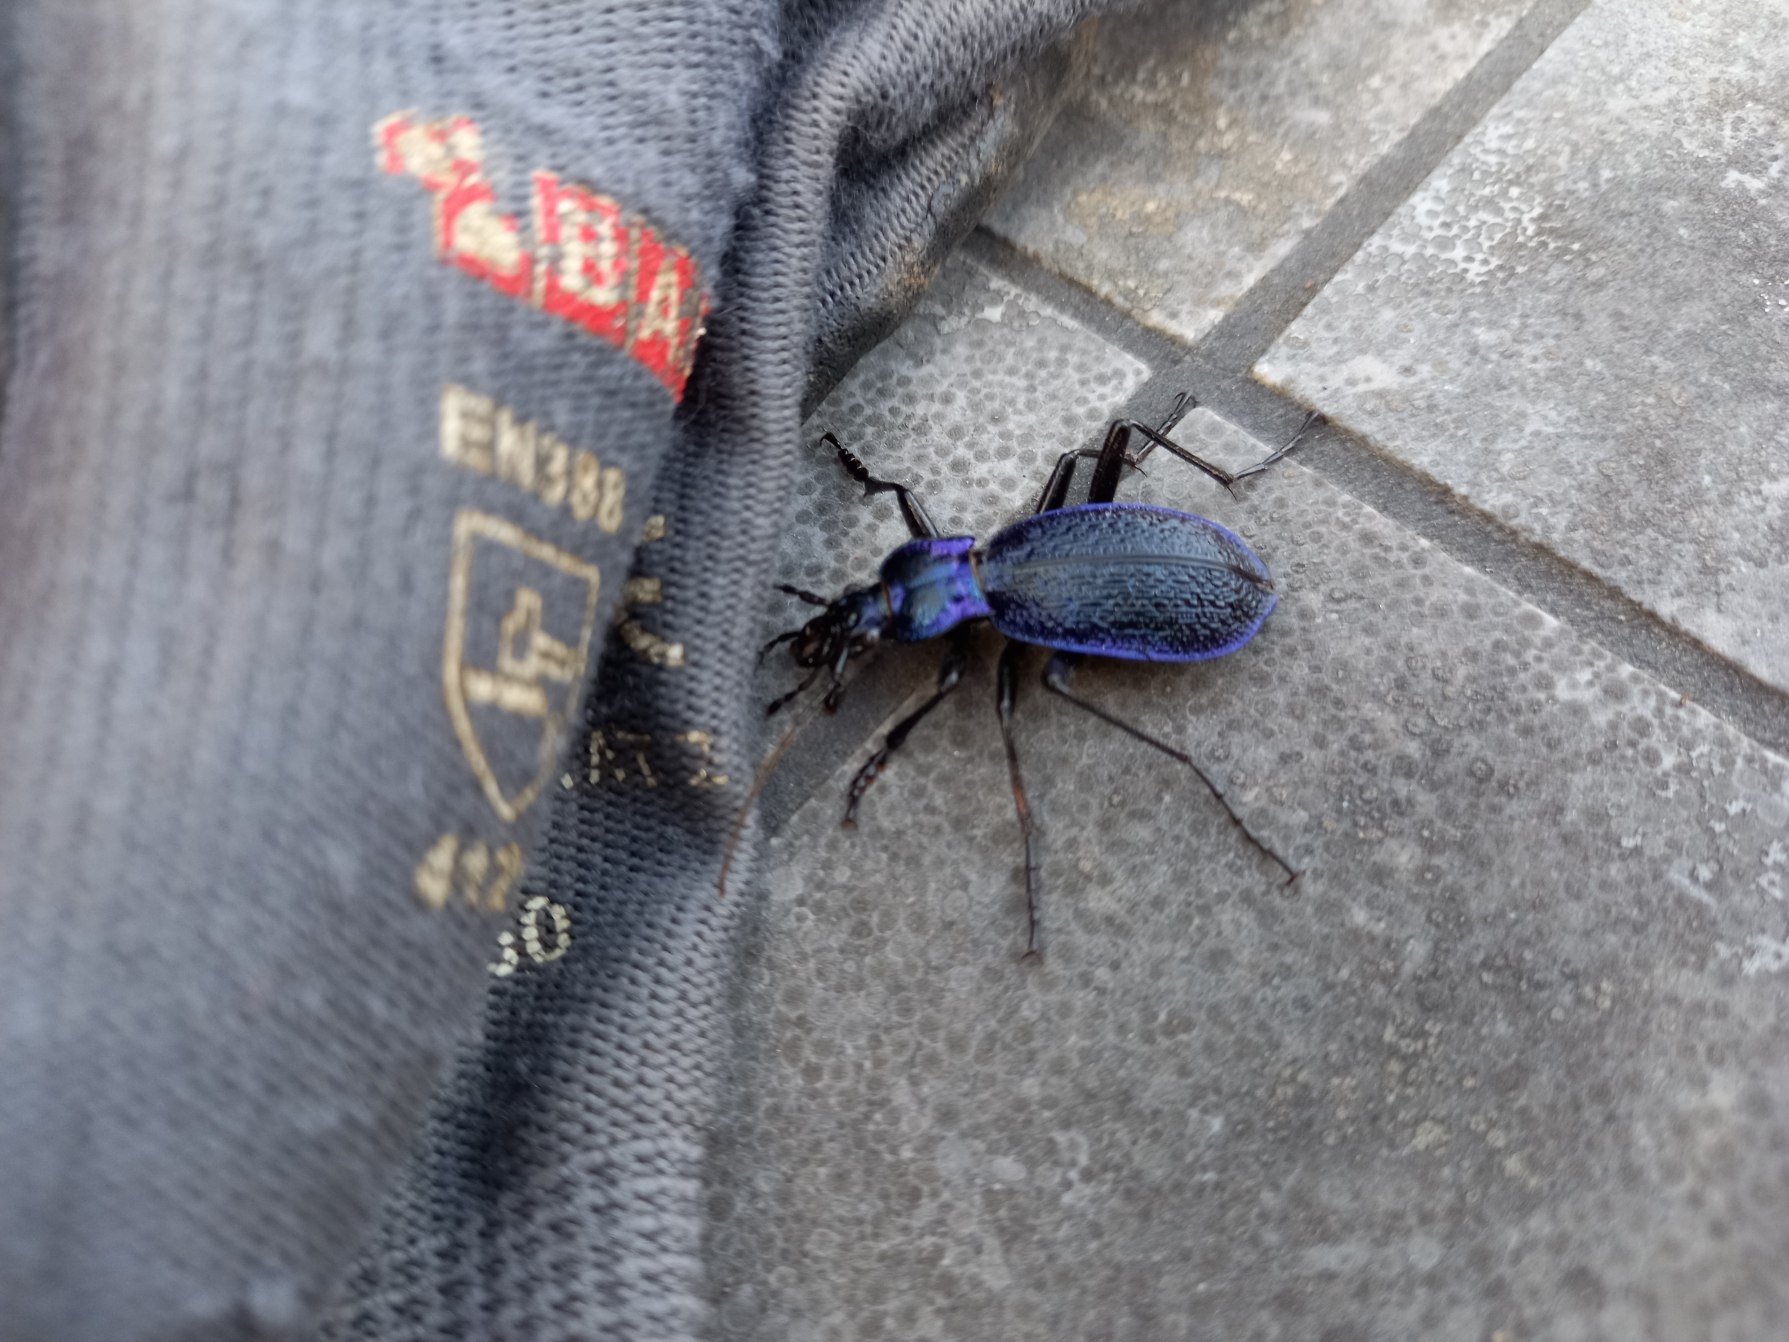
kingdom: Animalia
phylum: Arthropoda
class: Insecta
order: Coleoptera
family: Carabidae
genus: Carabus
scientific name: Carabus intricatus
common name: Bøgeløber
